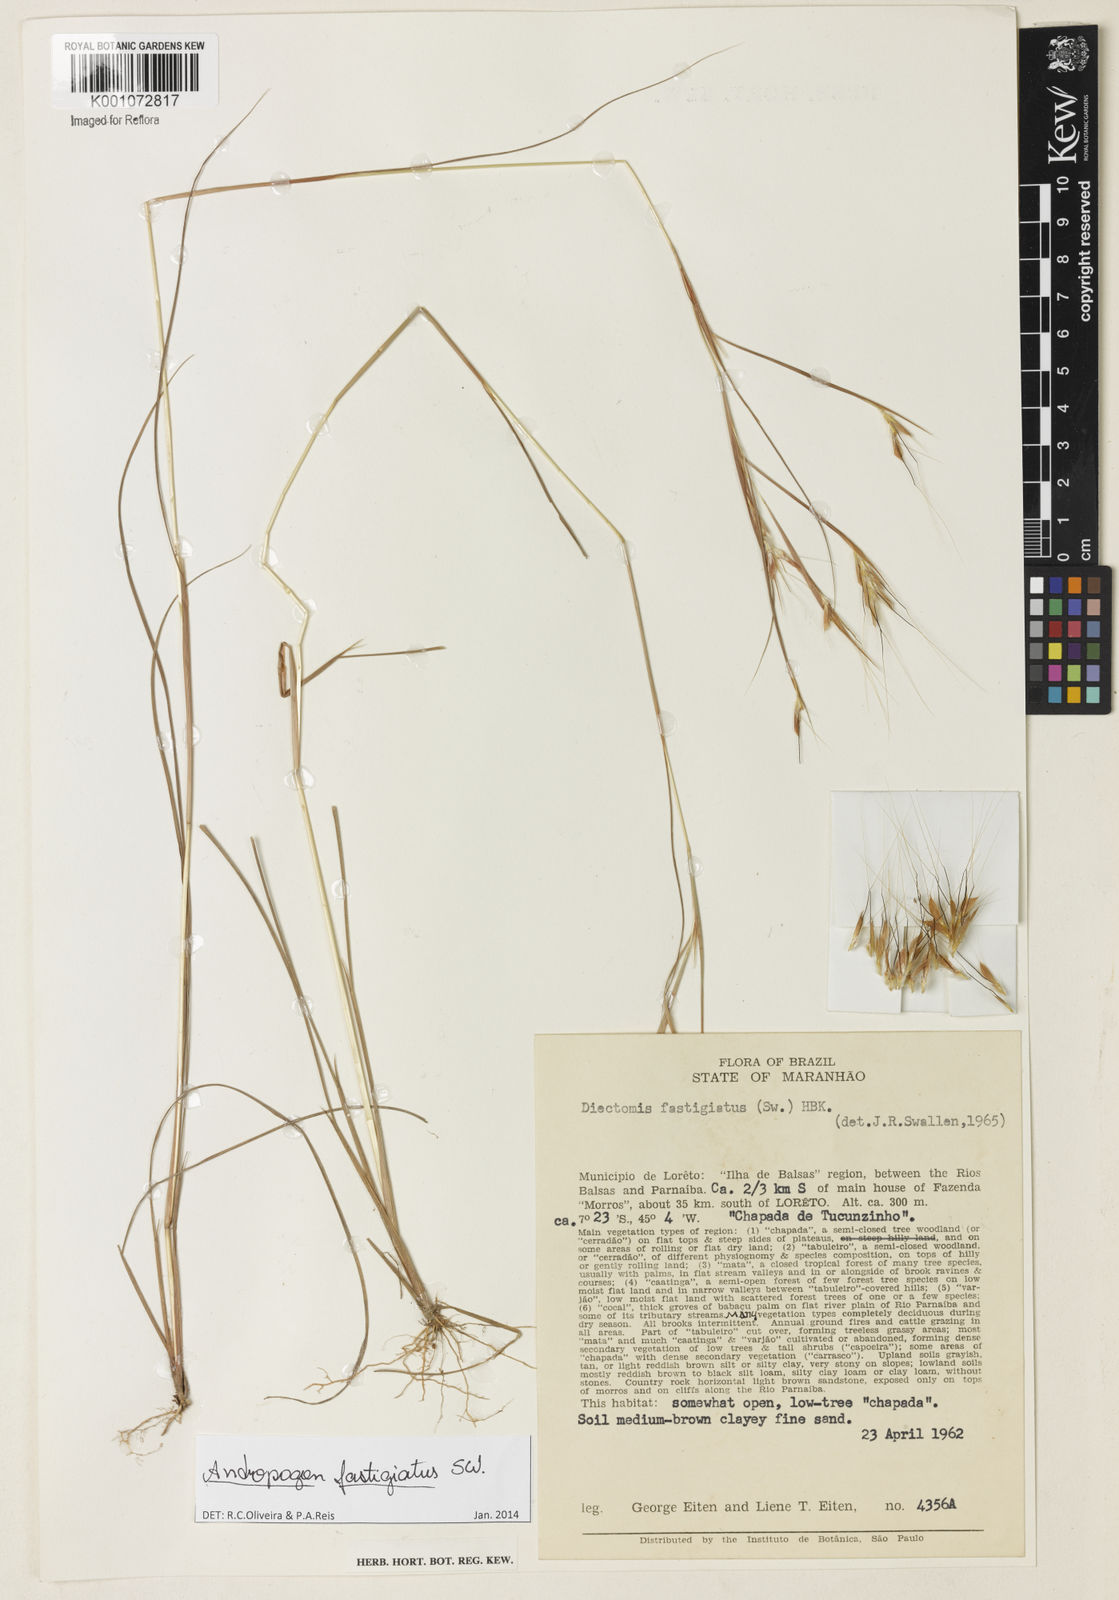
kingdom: Plantae
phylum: Tracheophyta
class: Liliopsida
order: Poales
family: Poaceae
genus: Diectomis
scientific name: Diectomis fastigiata
